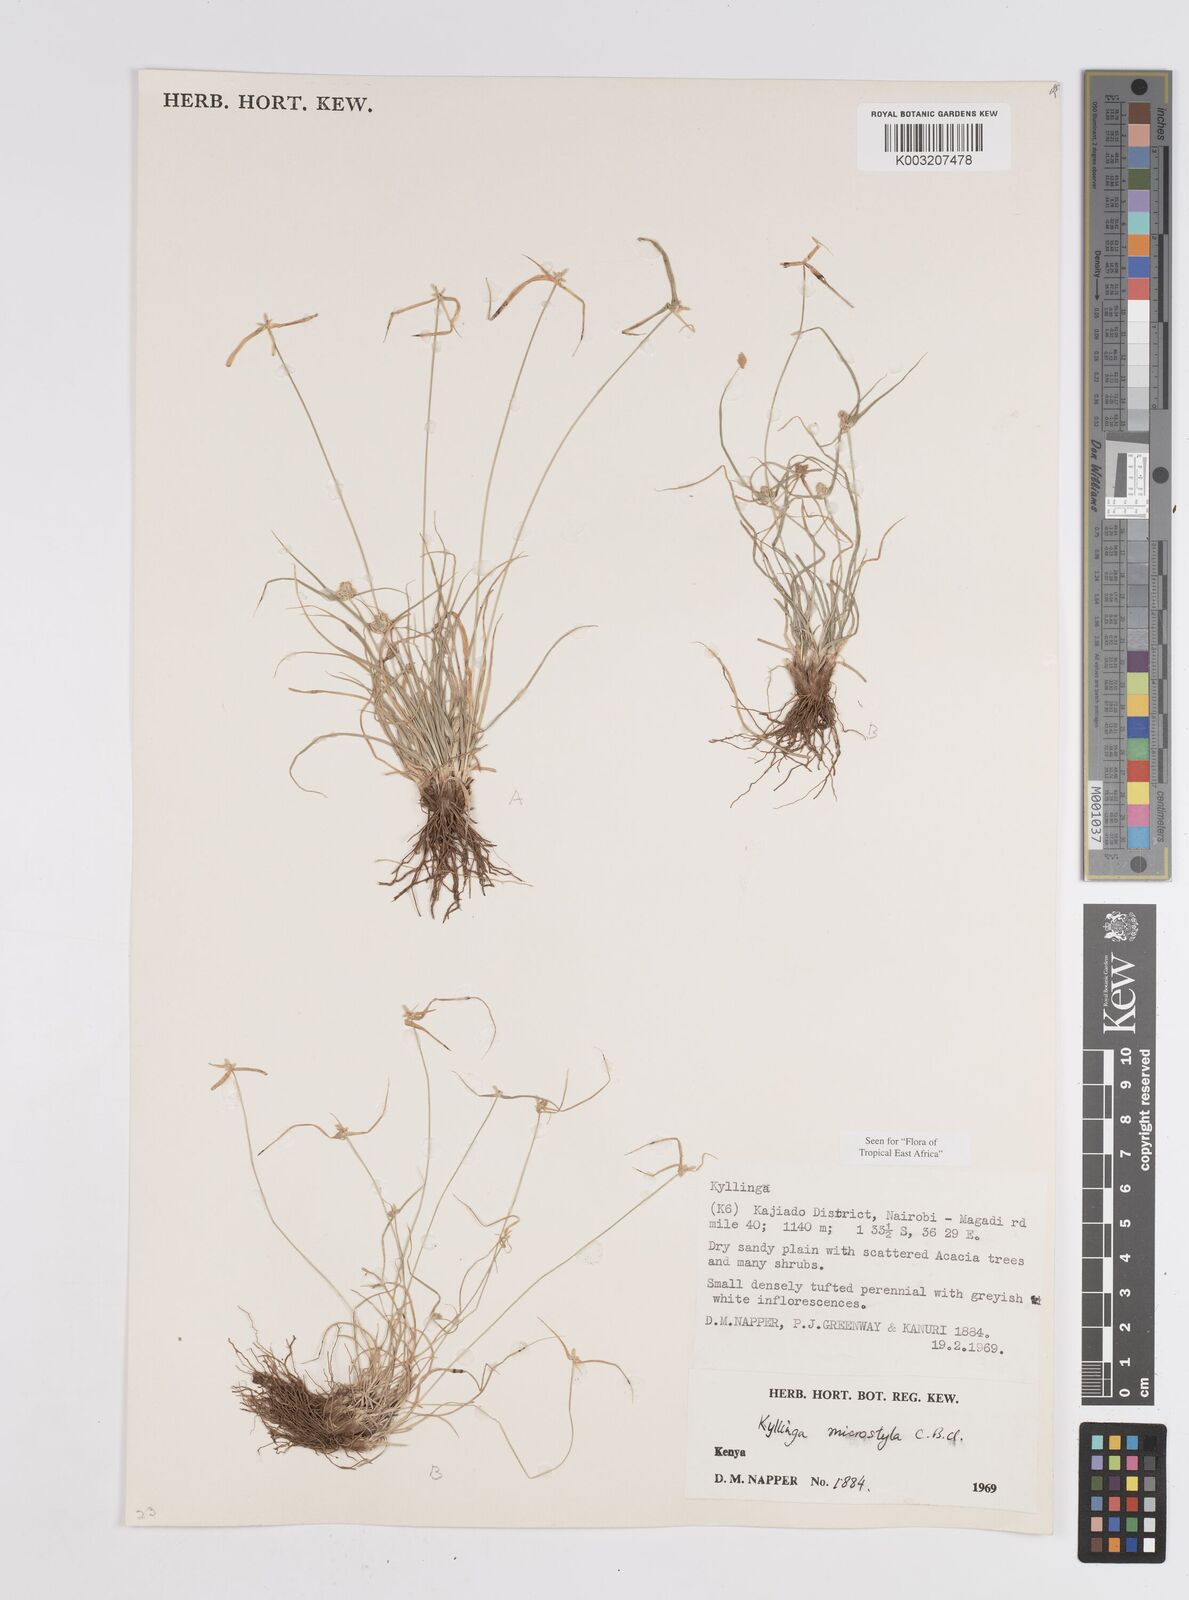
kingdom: Plantae
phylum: Tracheophyta
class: Liliopsida
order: Poales
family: Cyperaceae
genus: Cyperus
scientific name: Cyperus microstylus
